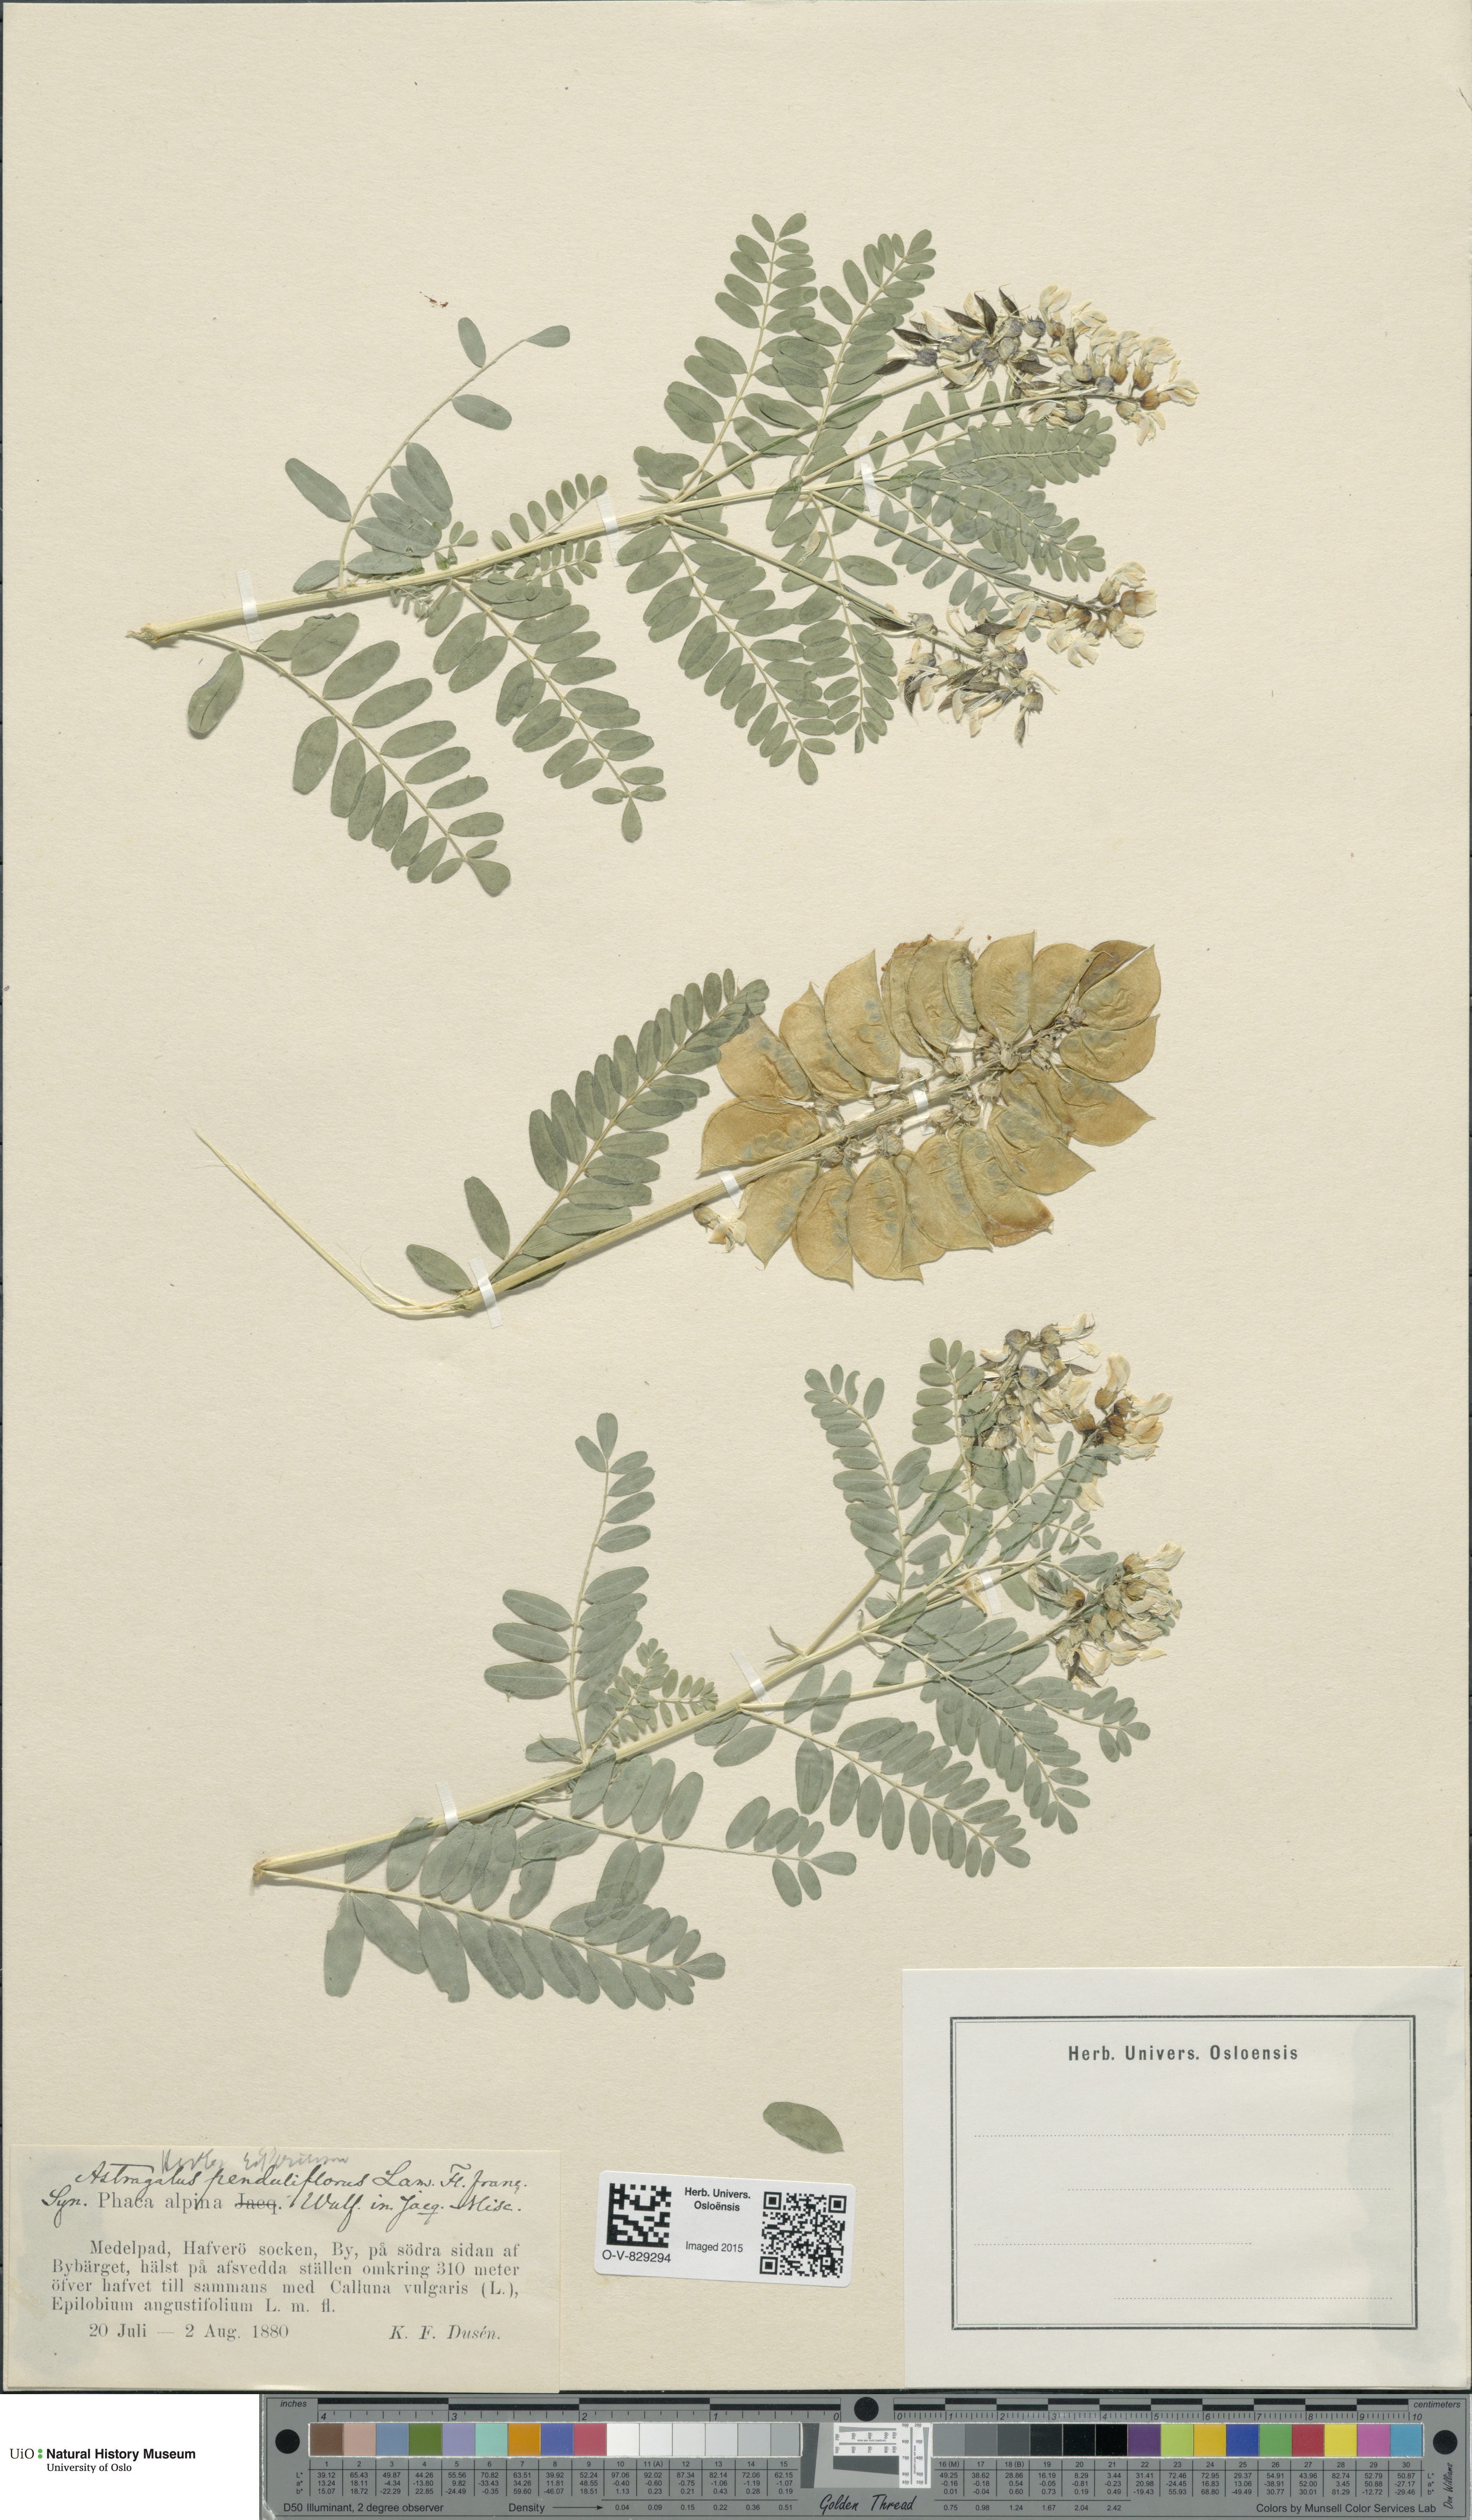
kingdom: Plantae
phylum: Tracheophyta
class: Magnoliopsida
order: Fabales
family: Fabaceae
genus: Astragalus
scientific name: Astragalus penduliflorus
